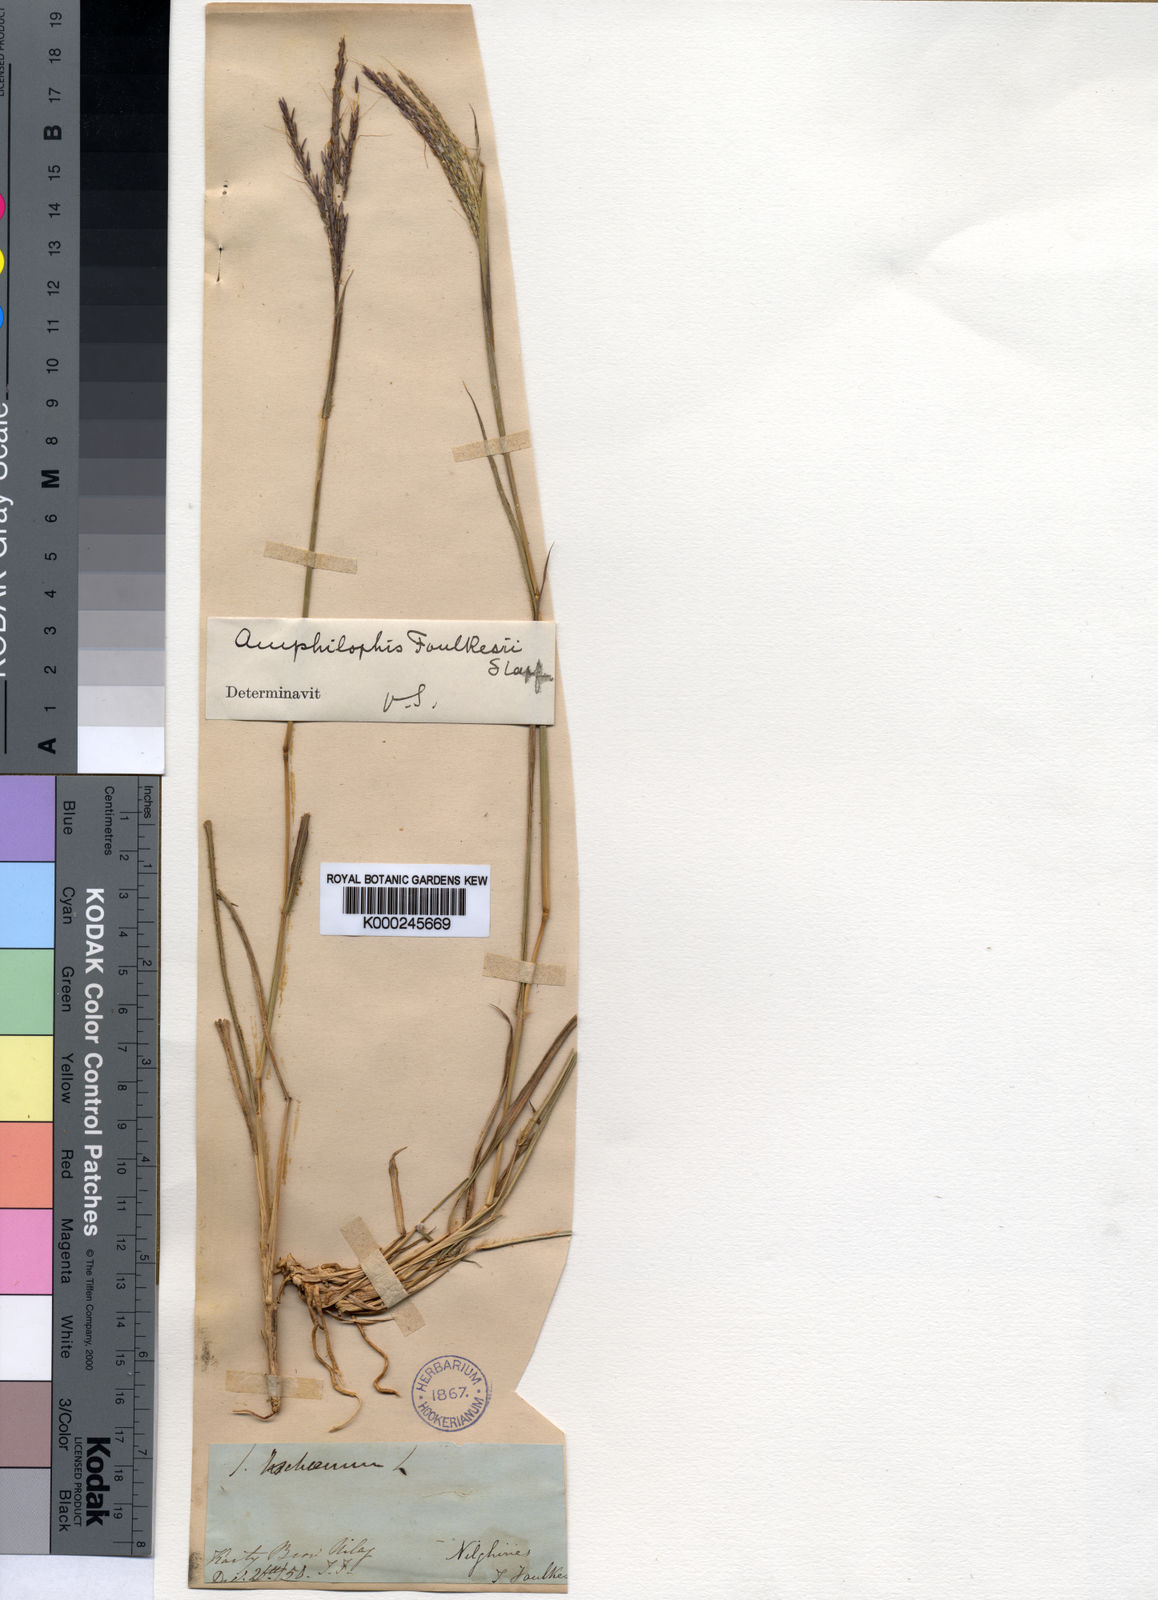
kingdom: Plantae
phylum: Tracheophyta
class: Liliopsida
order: Poales
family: Poaceae
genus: Dichanthium
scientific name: Dichanthium foulkesii
